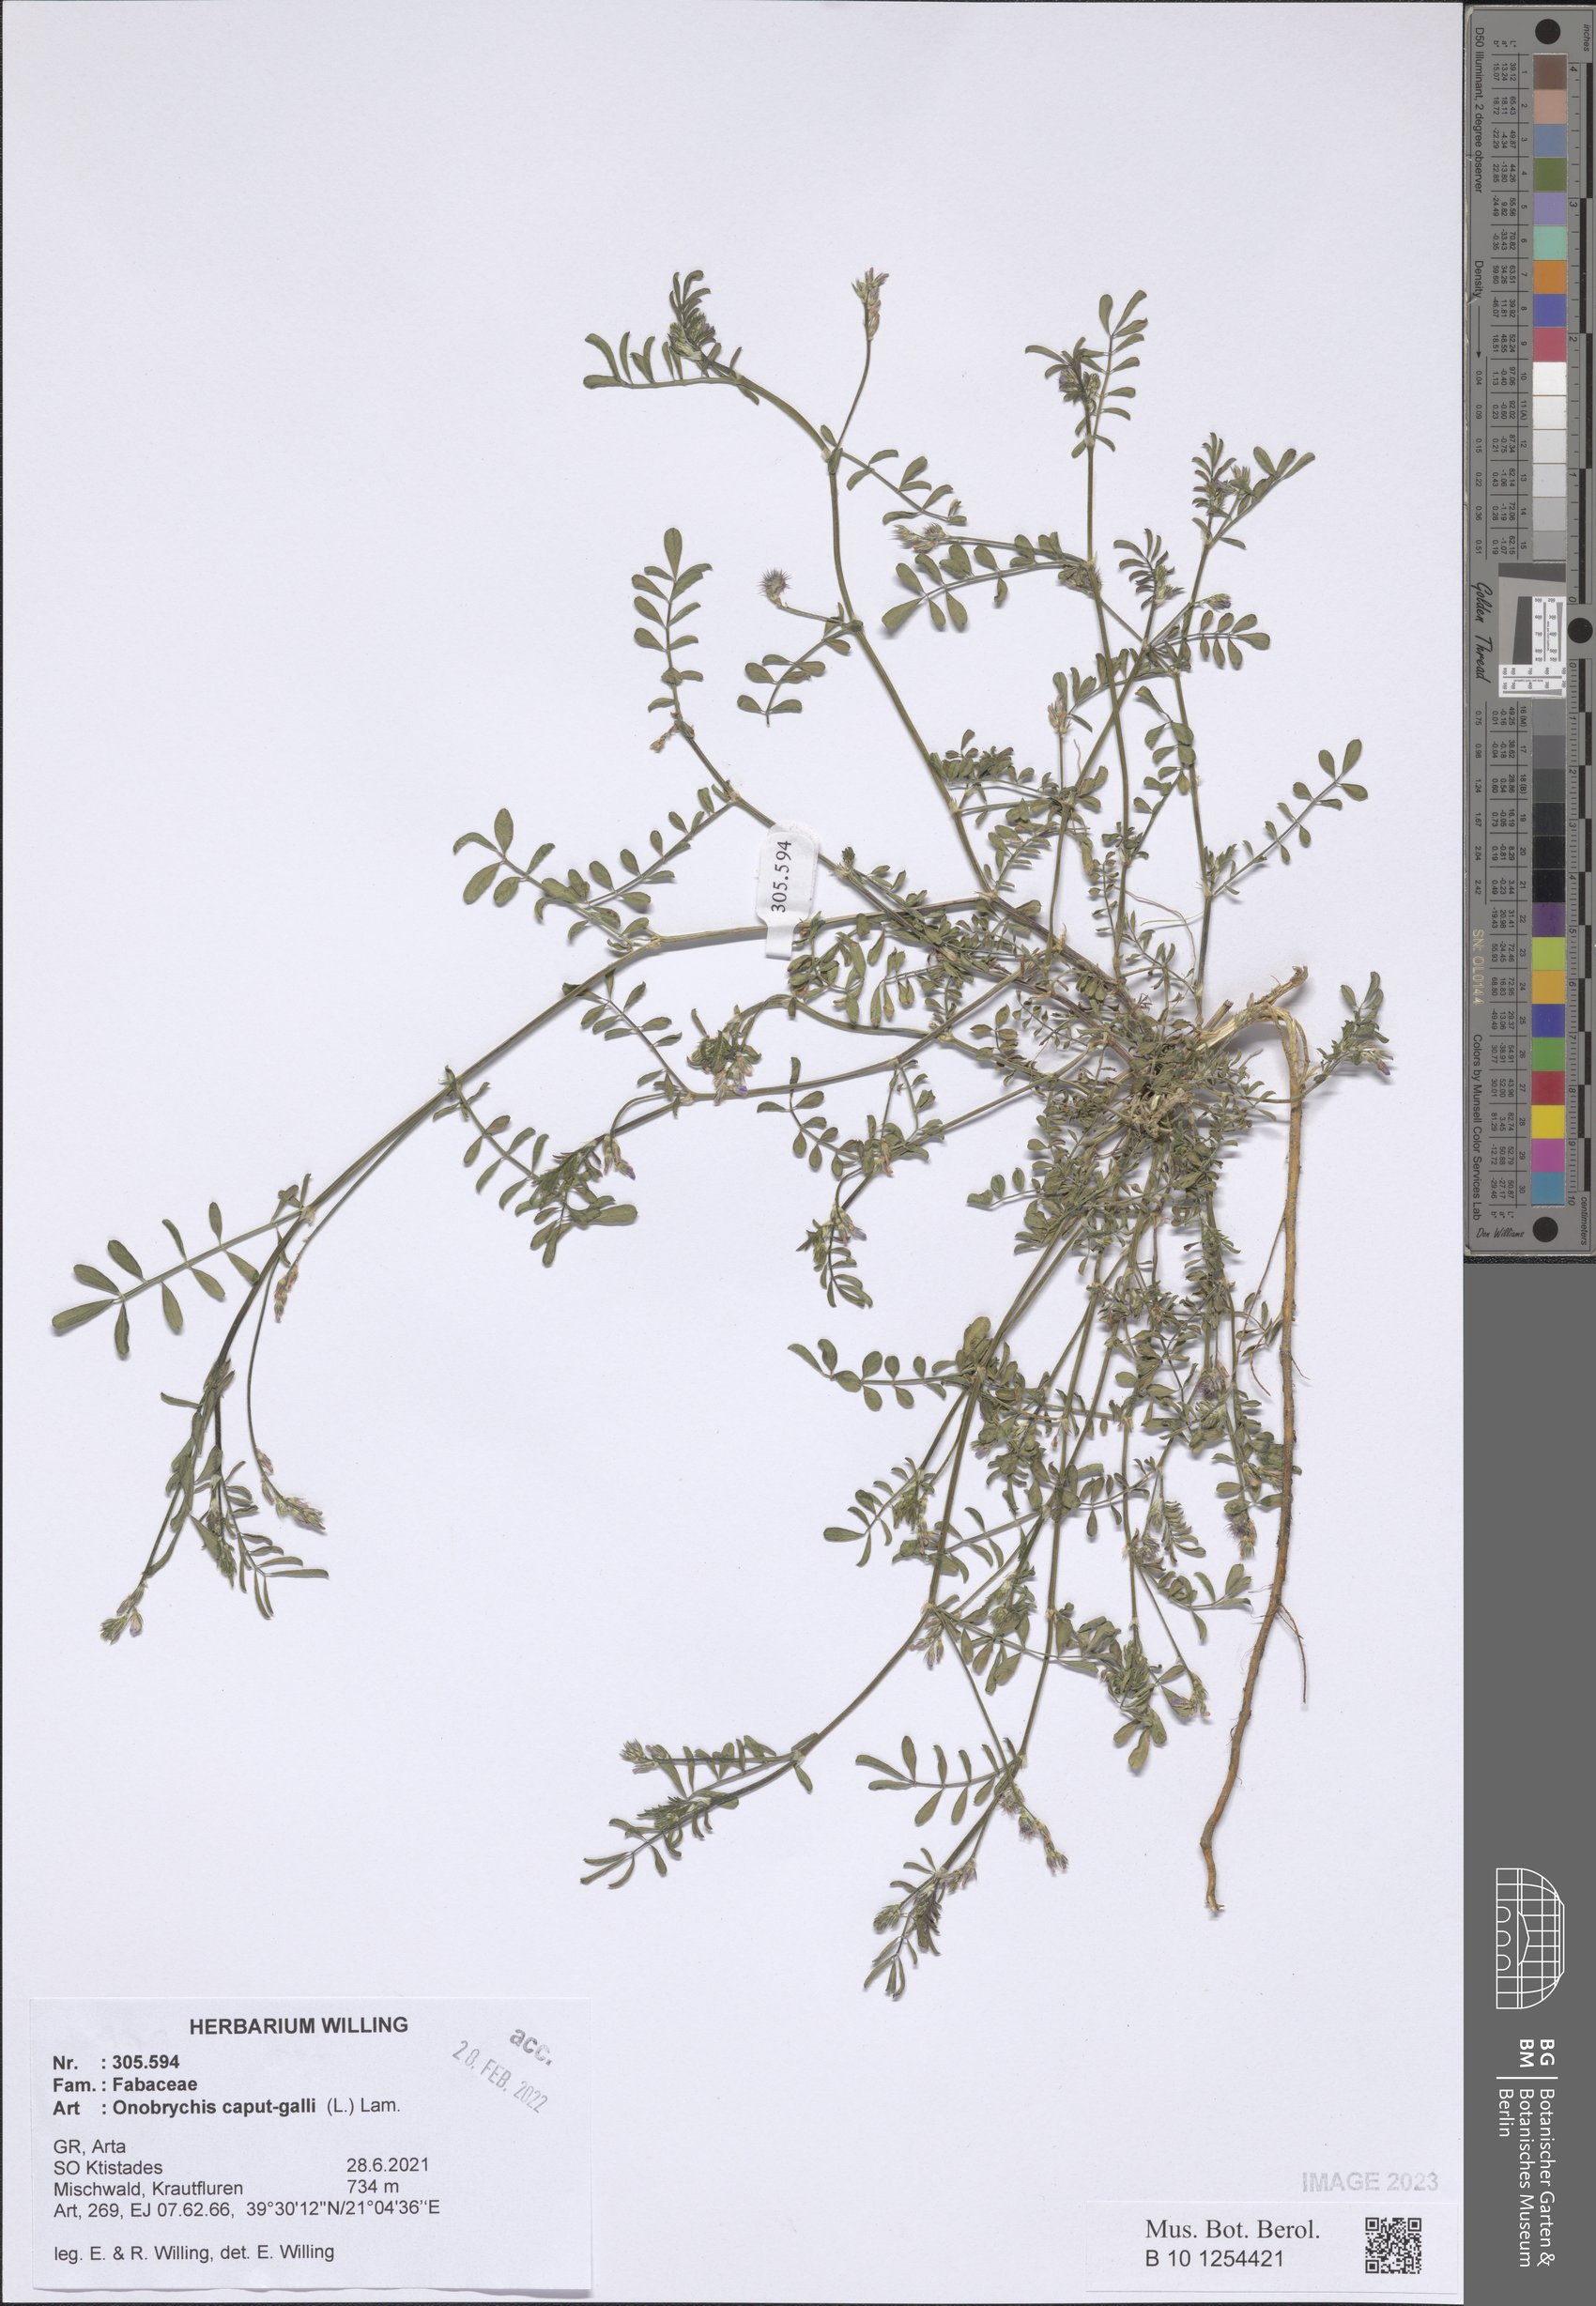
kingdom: Plantae
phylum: Tracheophyta
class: Magnoliopsida
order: Fabales
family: Fabaceae
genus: Onobrychis
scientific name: Onobrychis caput-galli
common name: Cockscomb sainfoin
